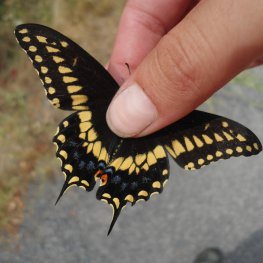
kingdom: Animalia
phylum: Arthropoda
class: Insecta
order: Lepidoptera
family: Papilionidae
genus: Papilio
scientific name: Papilio polyxenes
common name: Black Swallowtail
